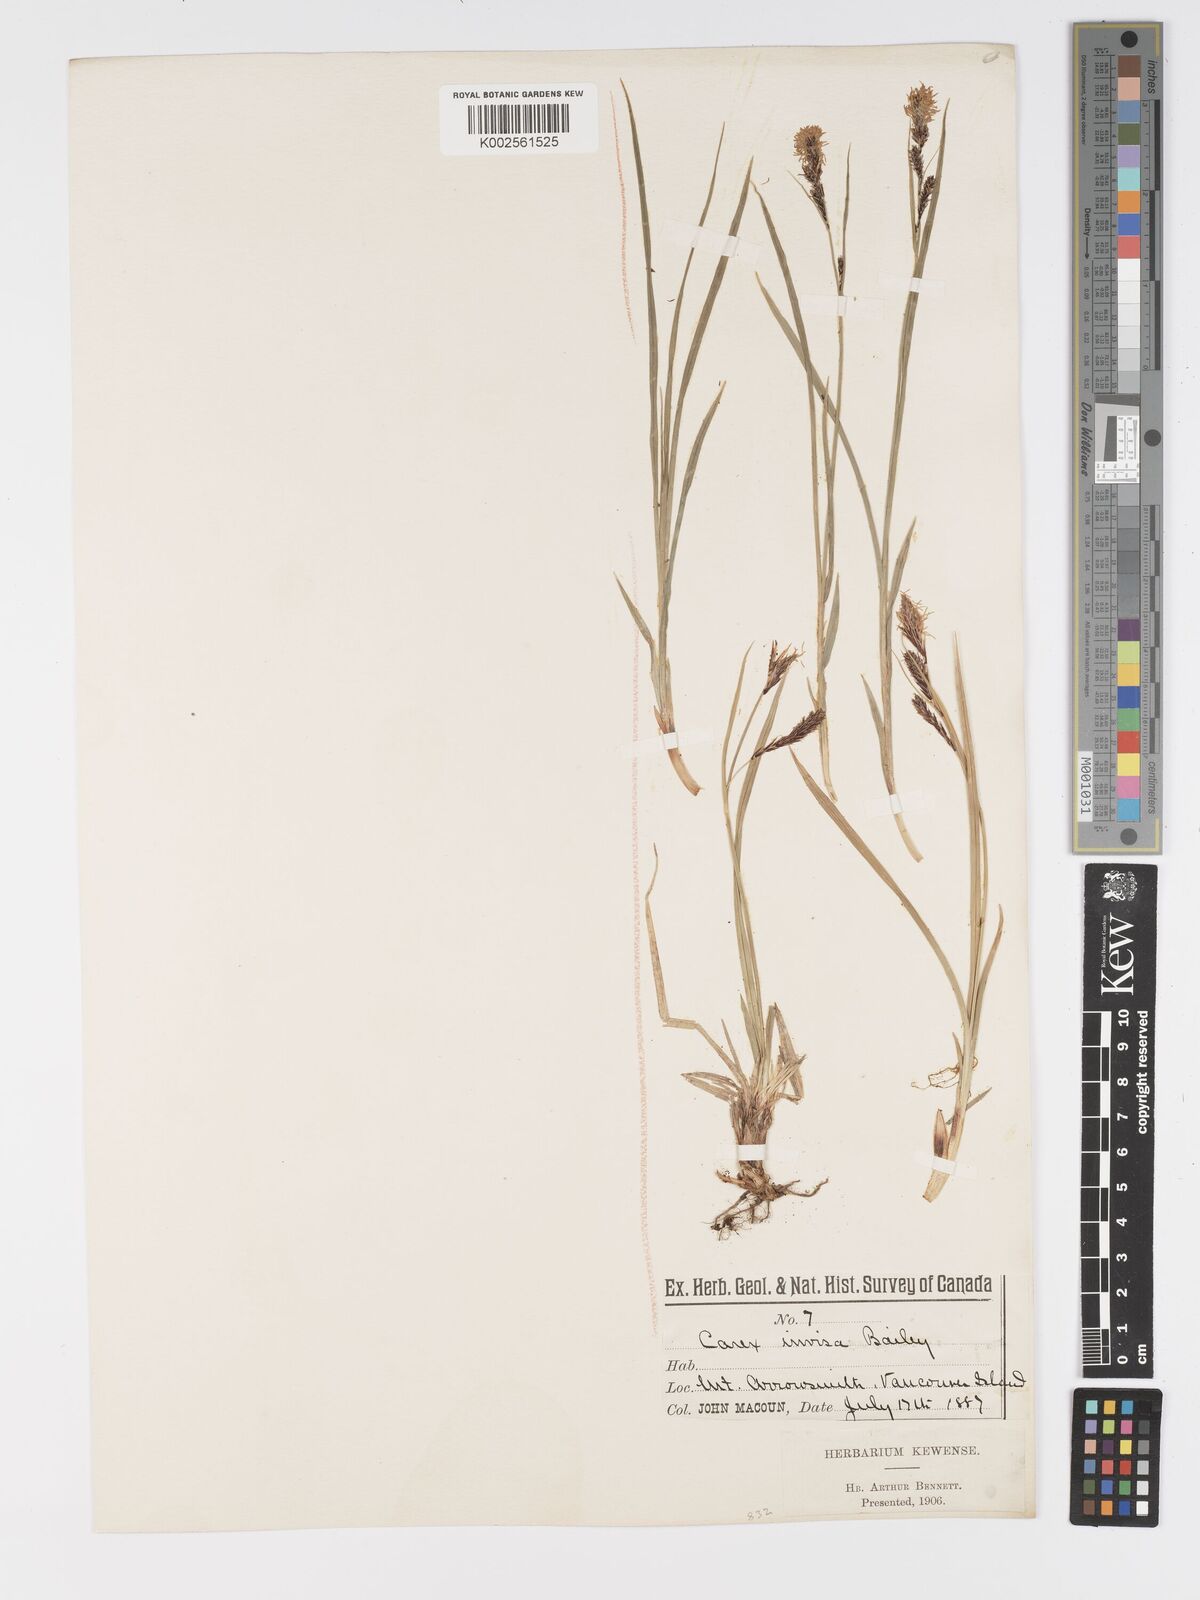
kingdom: Plantae
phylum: Tracheophyta
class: Liliopsida
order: Poales
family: Cyperaceae
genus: Carex
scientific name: Carex spectabilis
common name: Northwestern showy sedge
